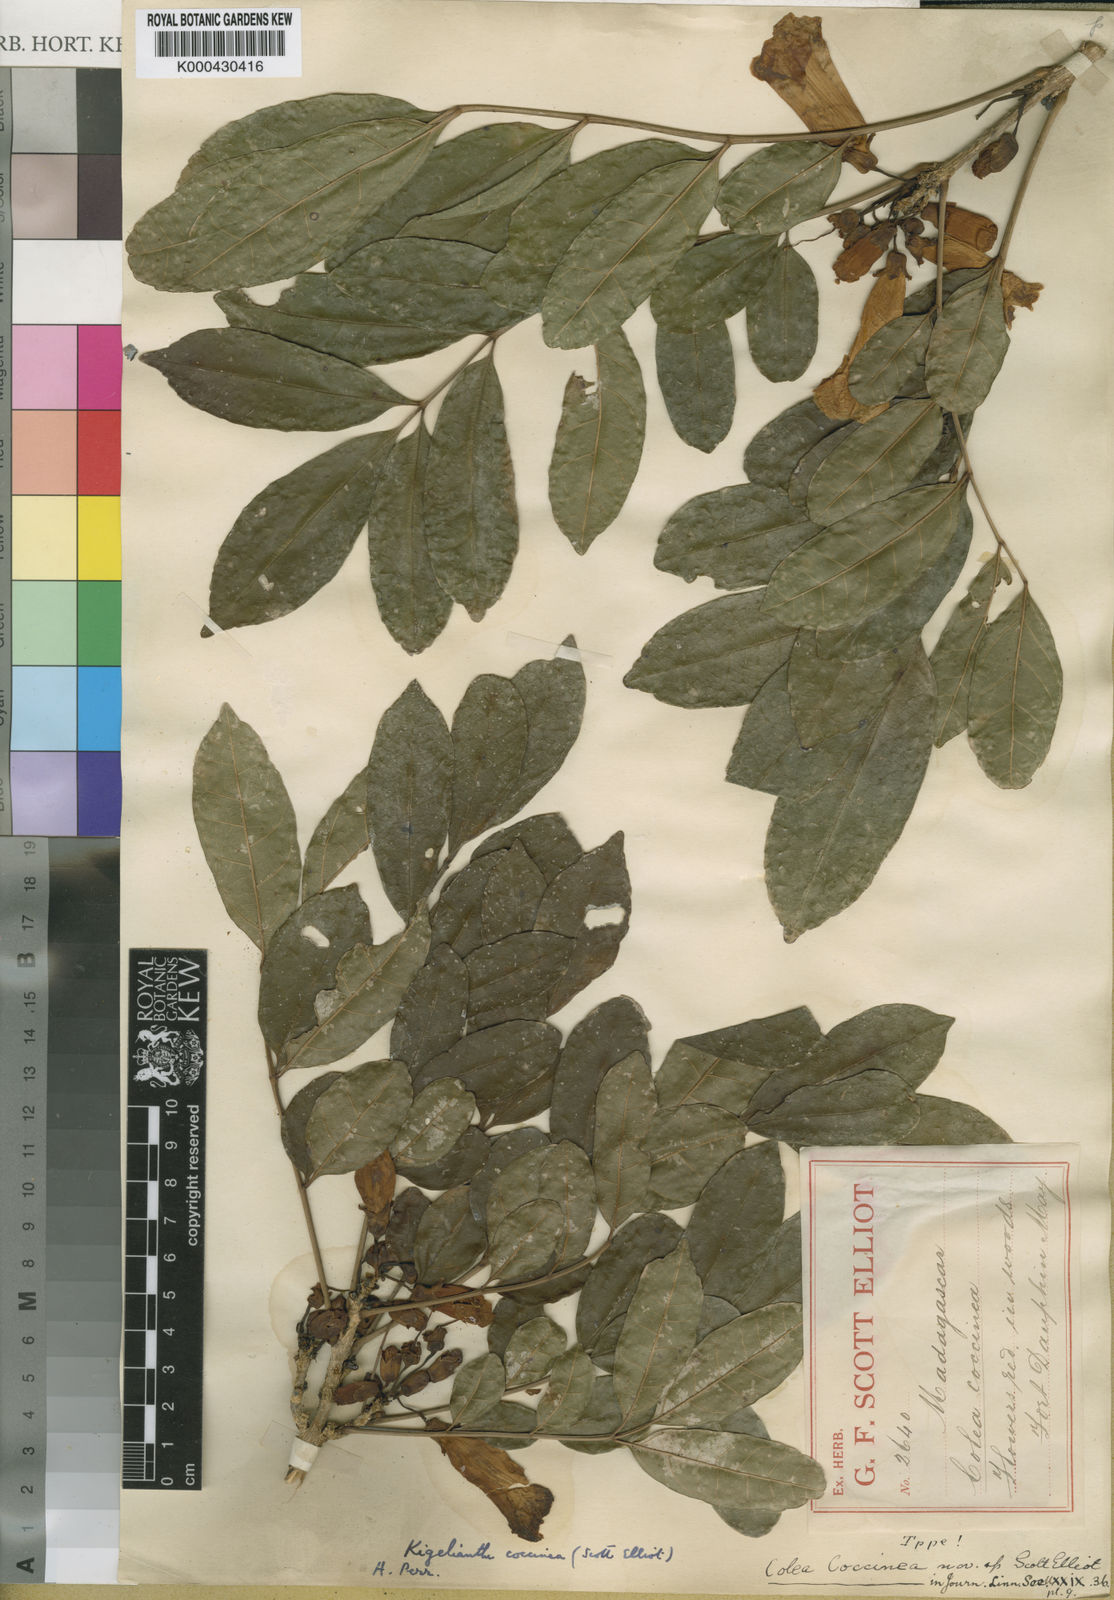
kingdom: Plantae
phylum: Tracheophyta
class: Magnoliopsida
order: Lamiales
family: Bignoniaceae
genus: Fernandoa
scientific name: Fernandoa coccinea
